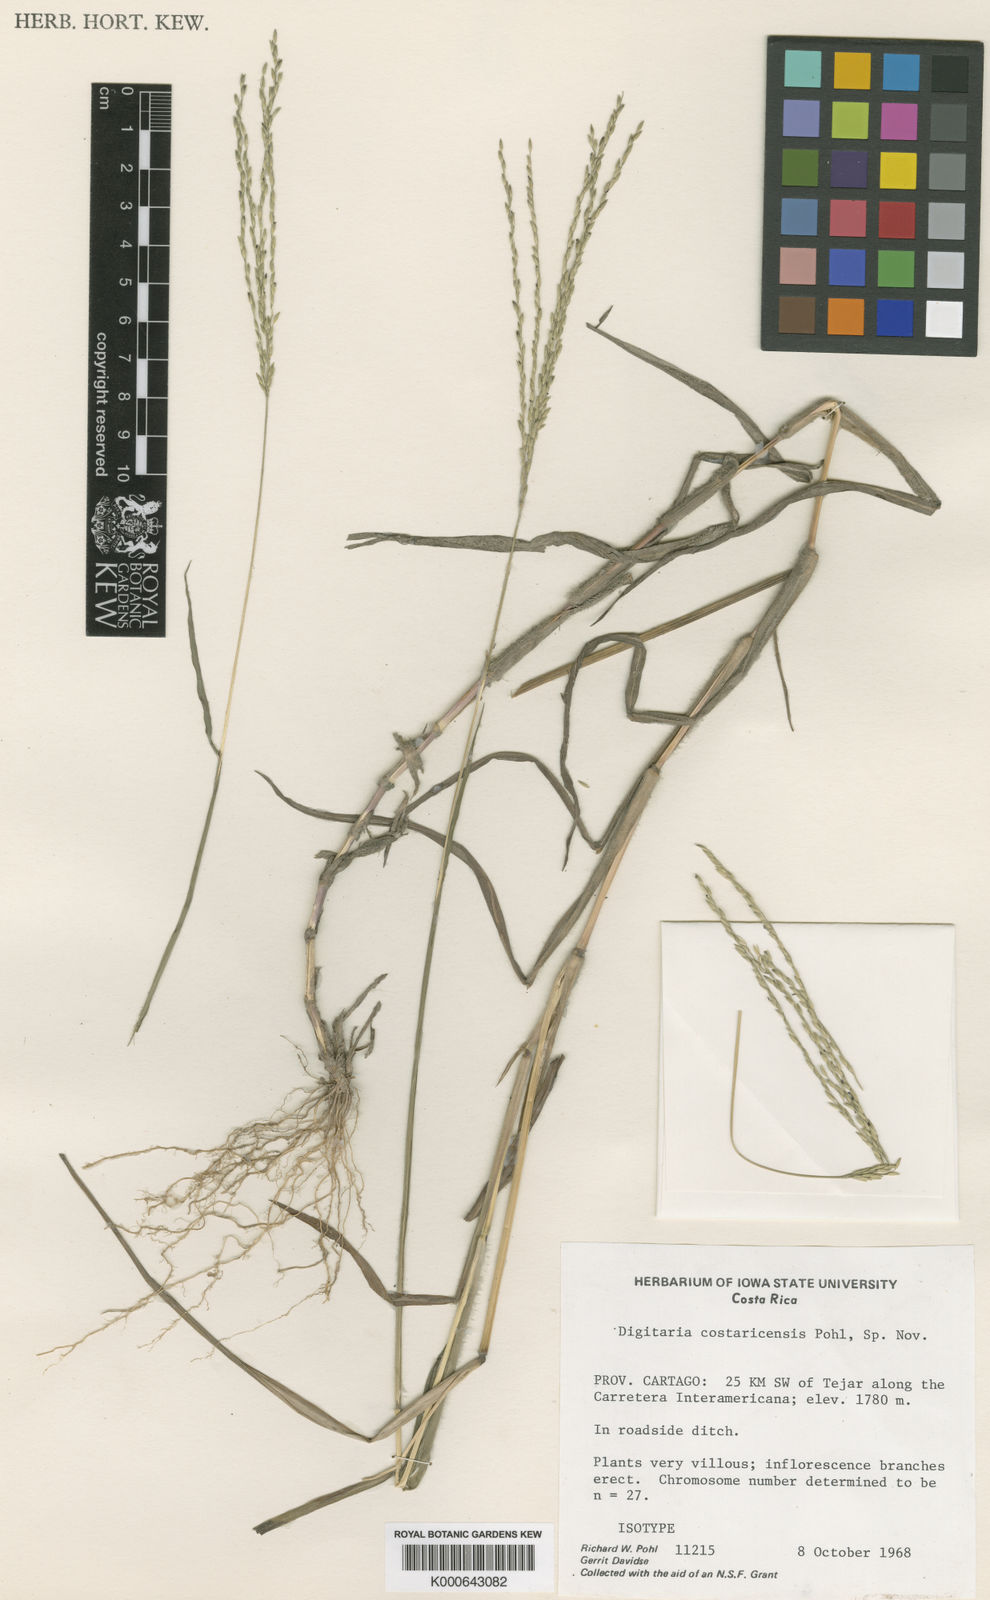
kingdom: Plantae
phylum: Tracheophyta
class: Liliopsida
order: Poales
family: Poaceae
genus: Digitaria
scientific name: Digitaria costaricensis
